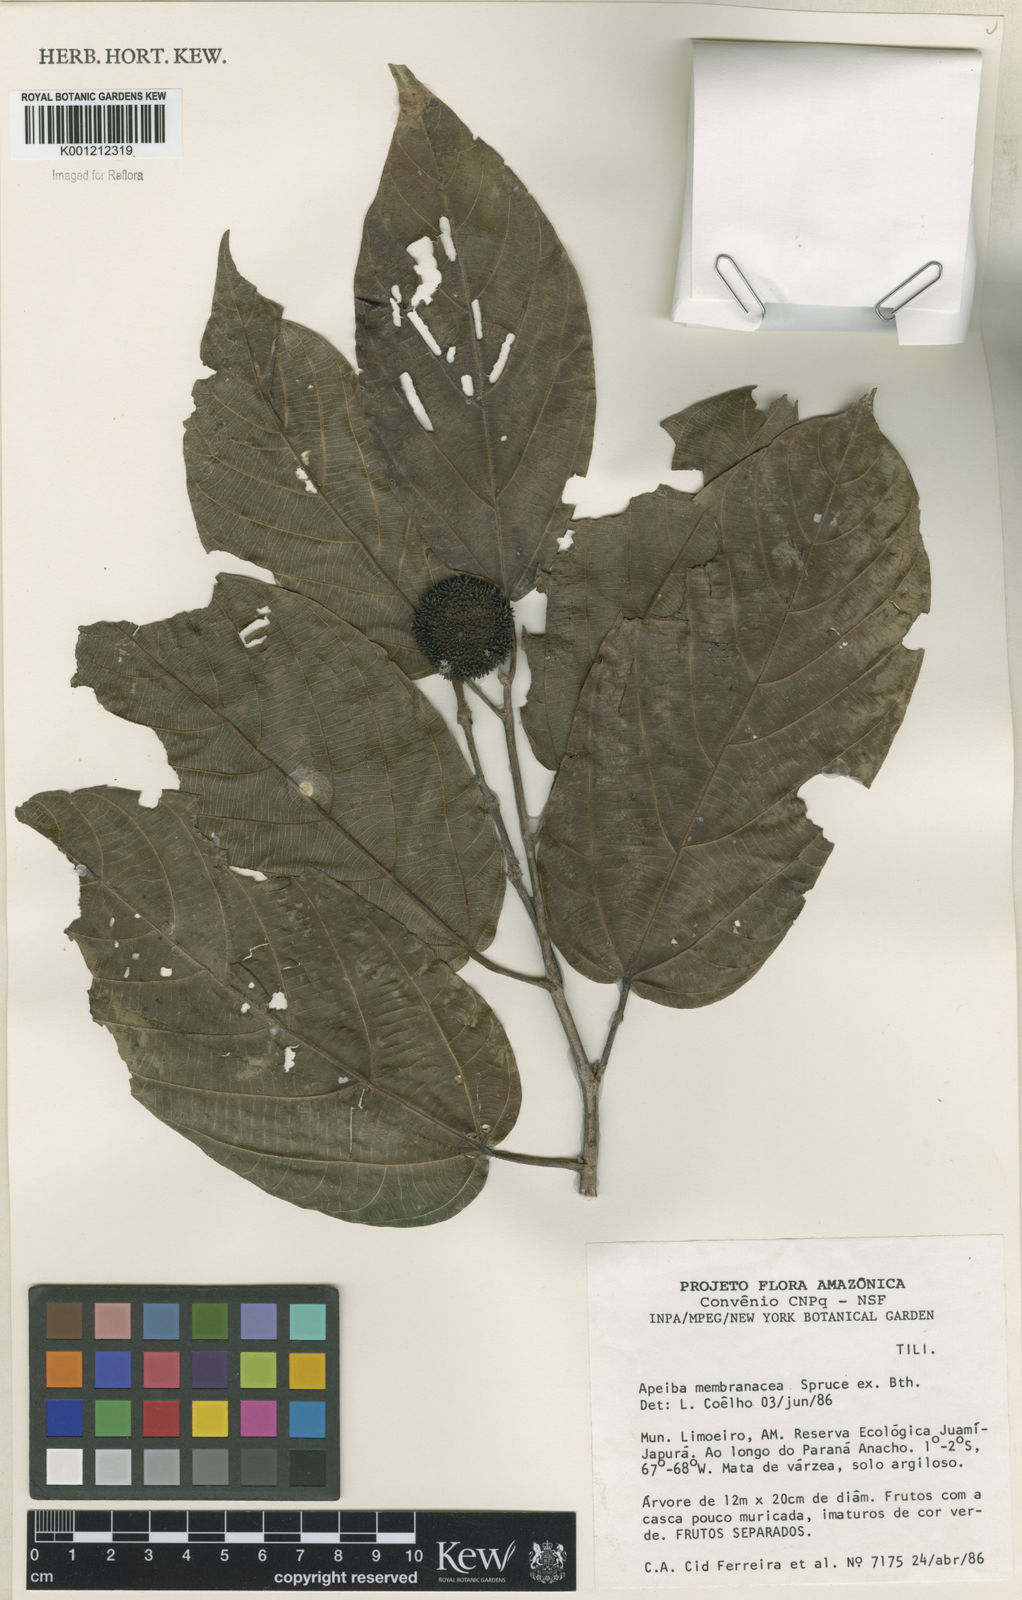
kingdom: Plantae
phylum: Tracheophyta
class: Magnoliopsida
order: Malvales
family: Malvaceae
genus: Apeiba
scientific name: Apeiba membranacea
